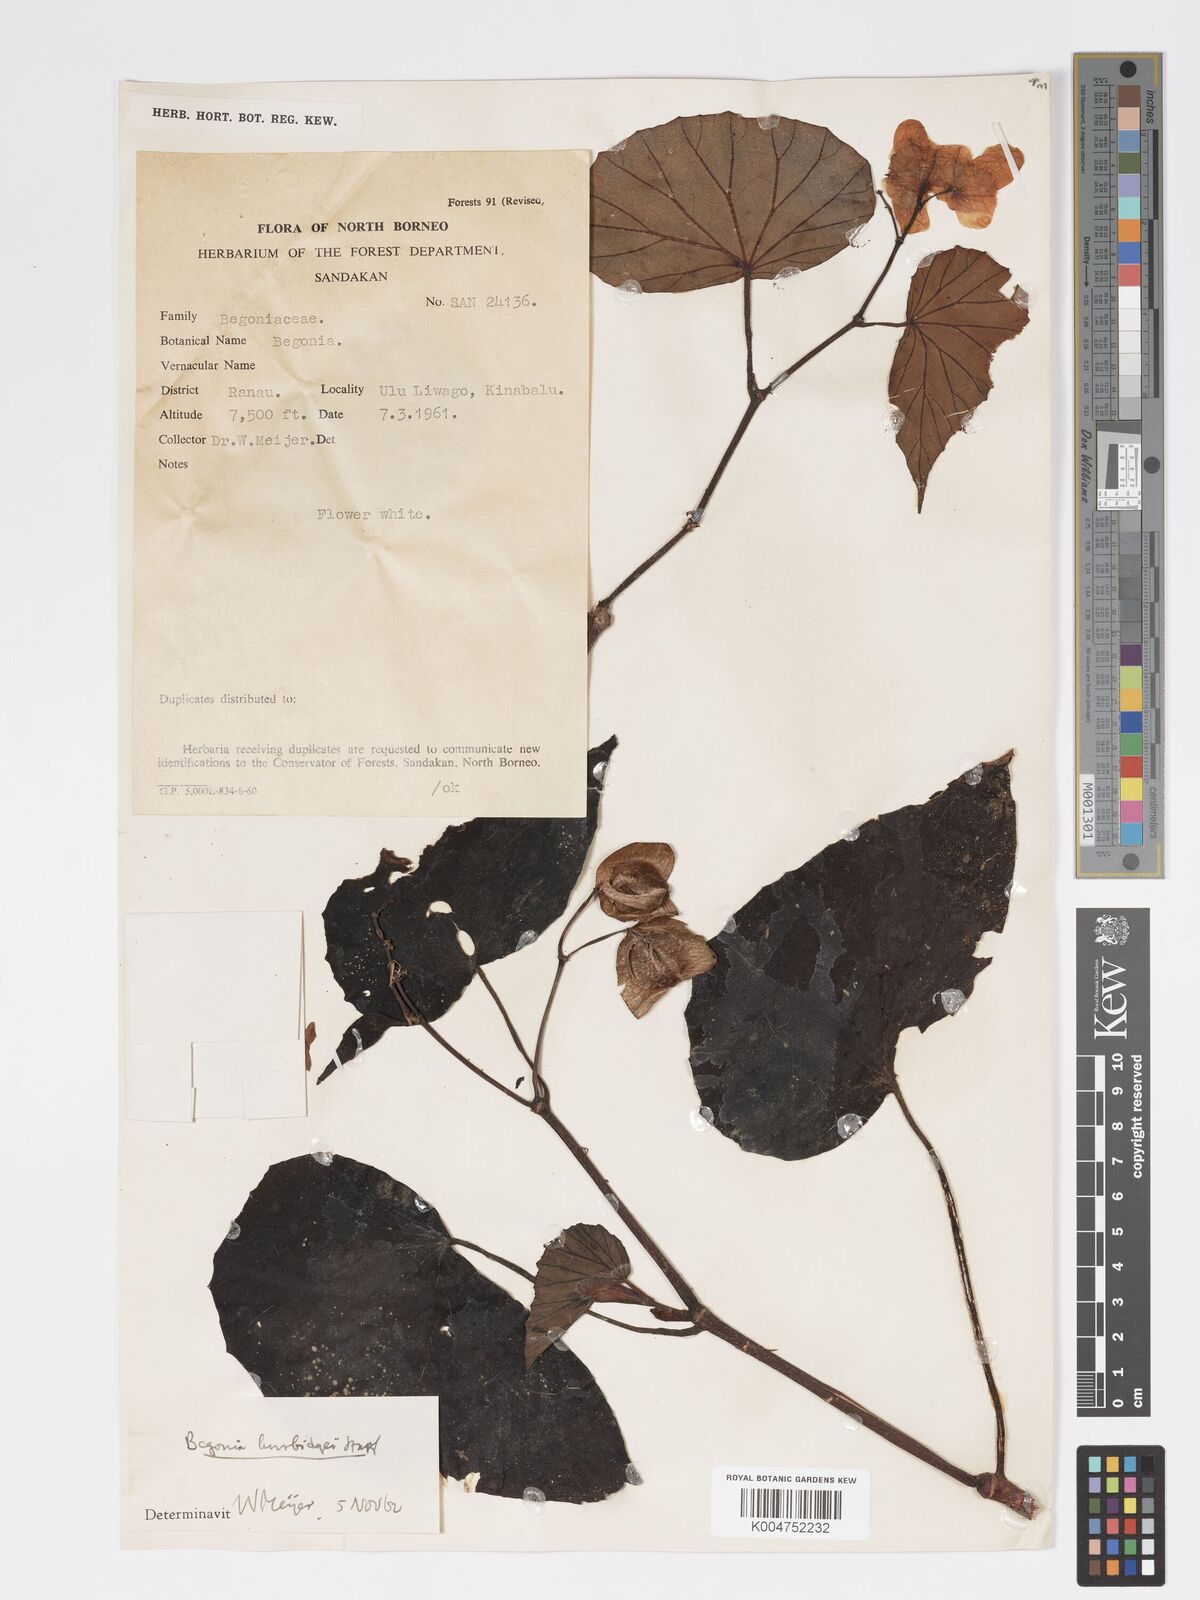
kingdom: Plantae
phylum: Tracheophyta
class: Magnoliopsida
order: Cucurbitales
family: Begoniaceae
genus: Begonia
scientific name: Begonia burbidgei
